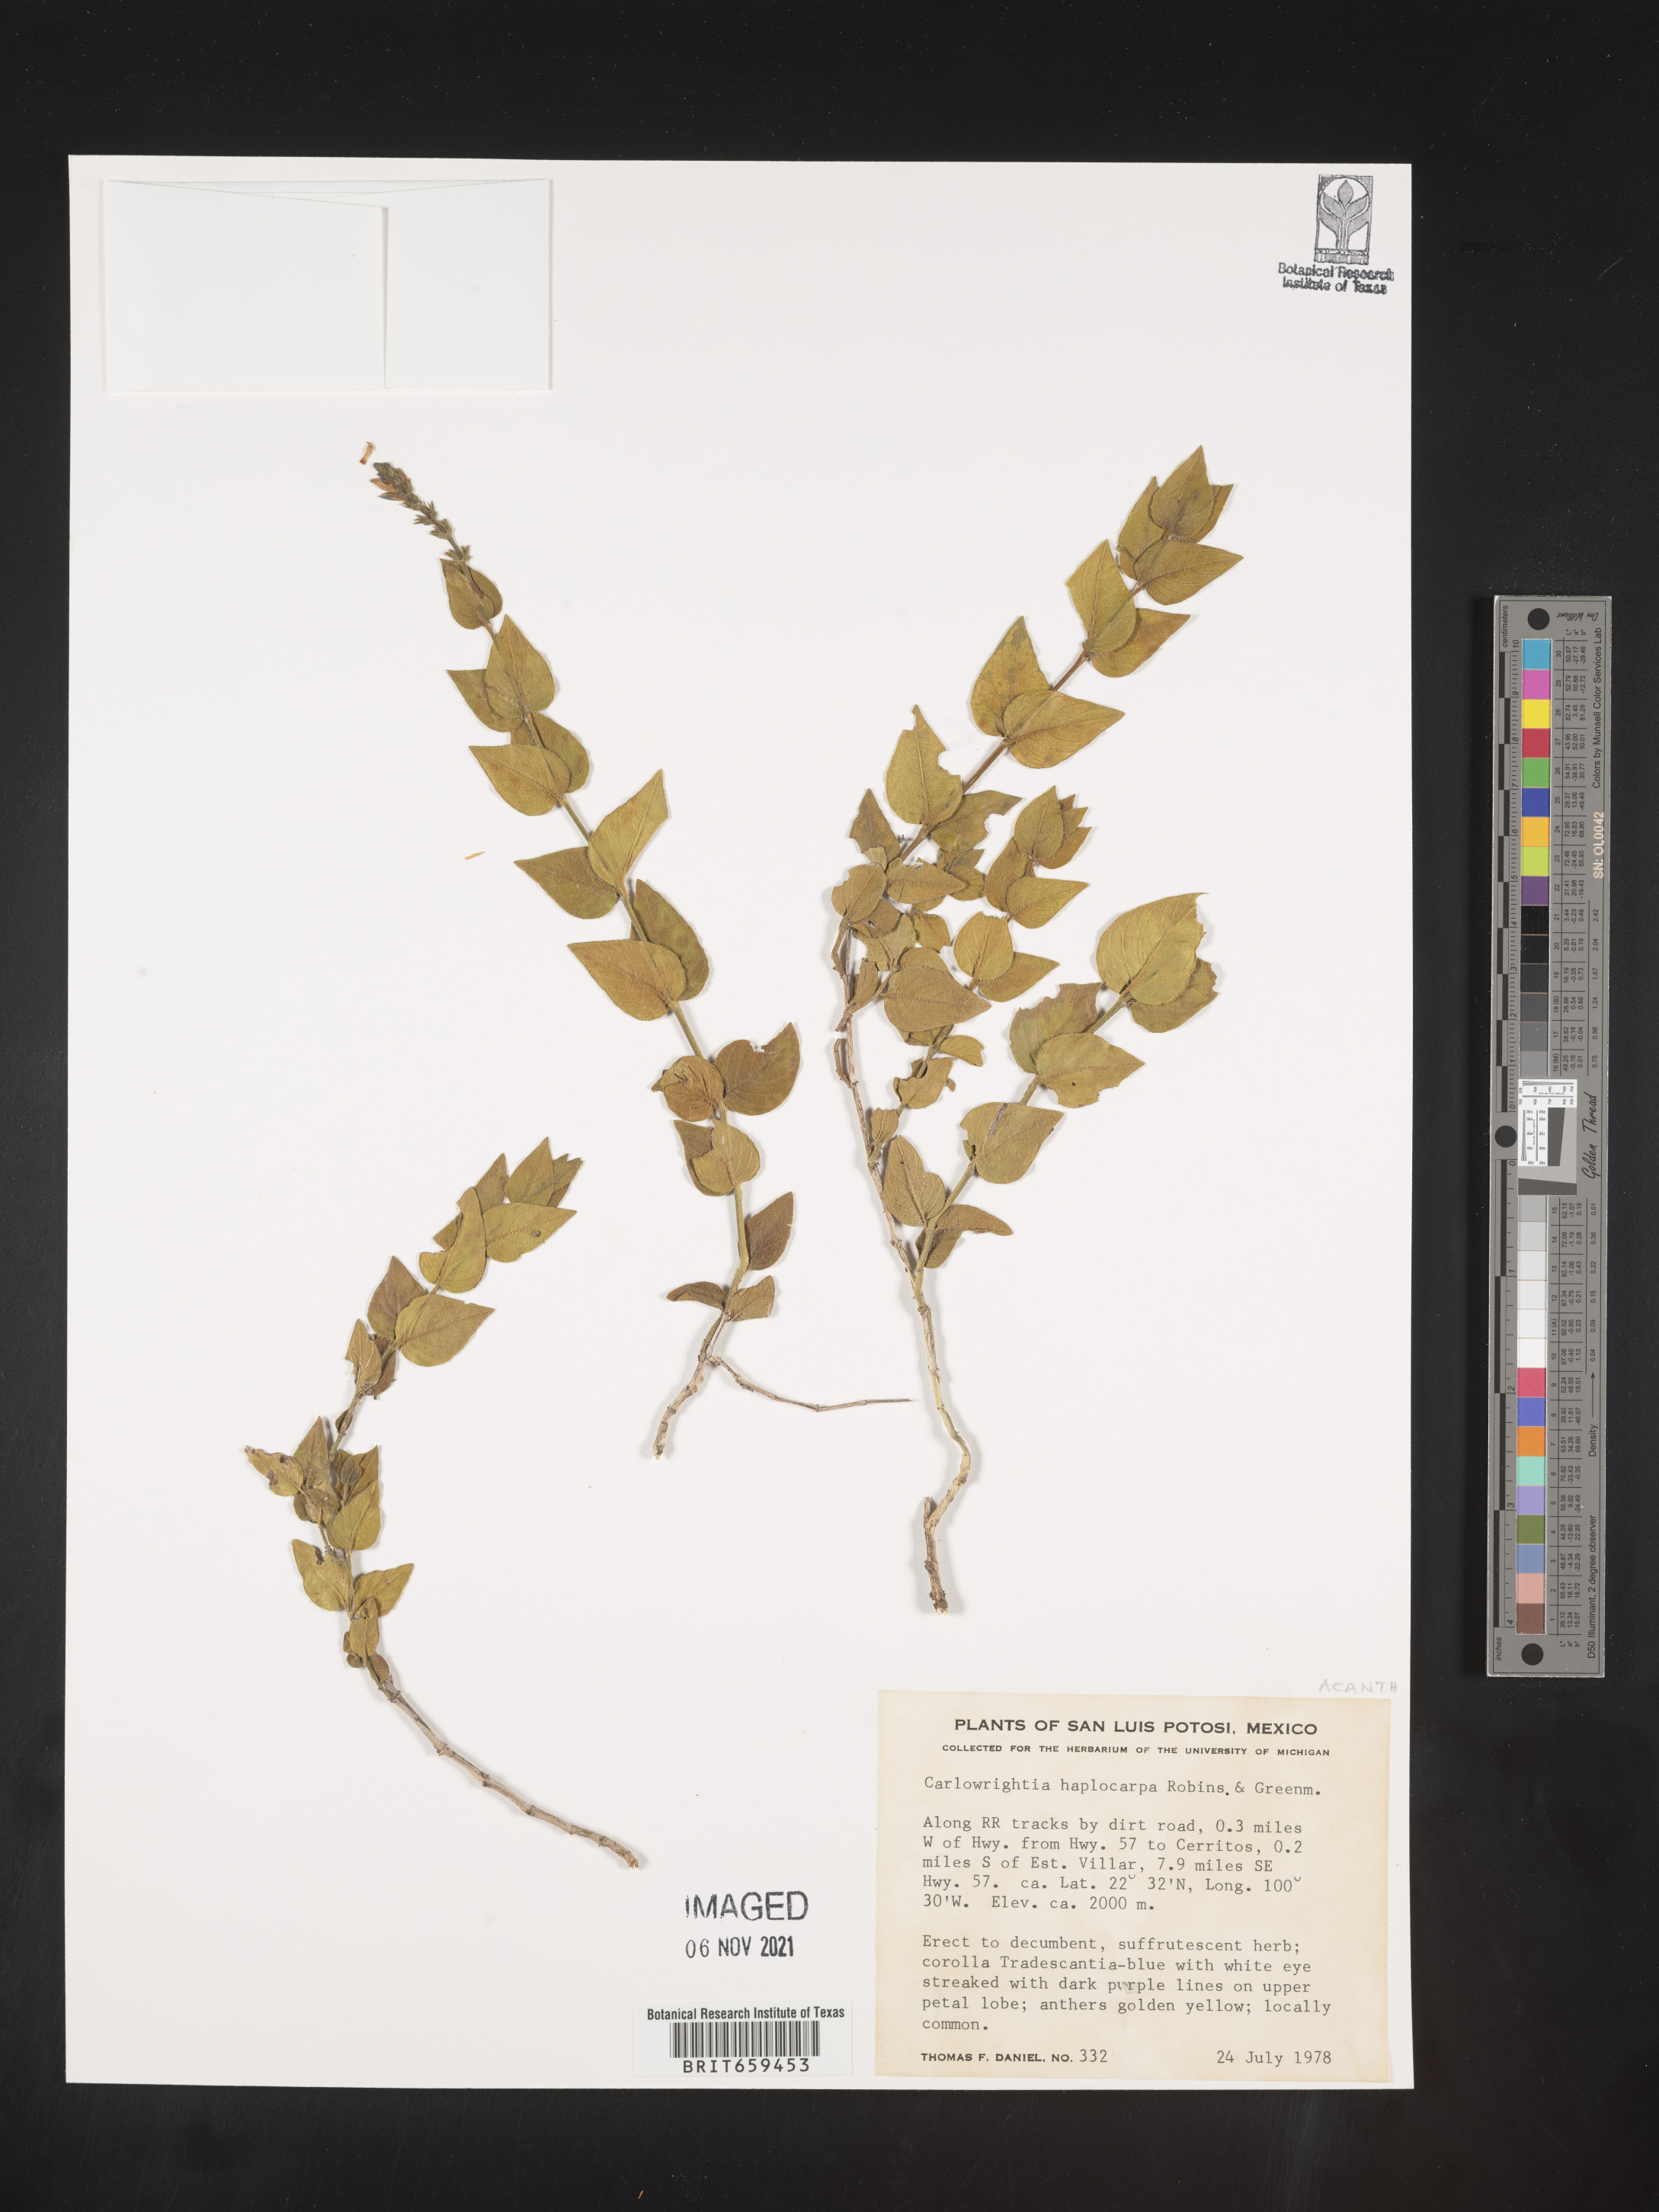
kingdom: Plantae
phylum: Tracheophyta
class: Magnoliopsida
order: Lamiales
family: Acanthaceae
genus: Carlowrightia
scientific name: Carlowrightia
